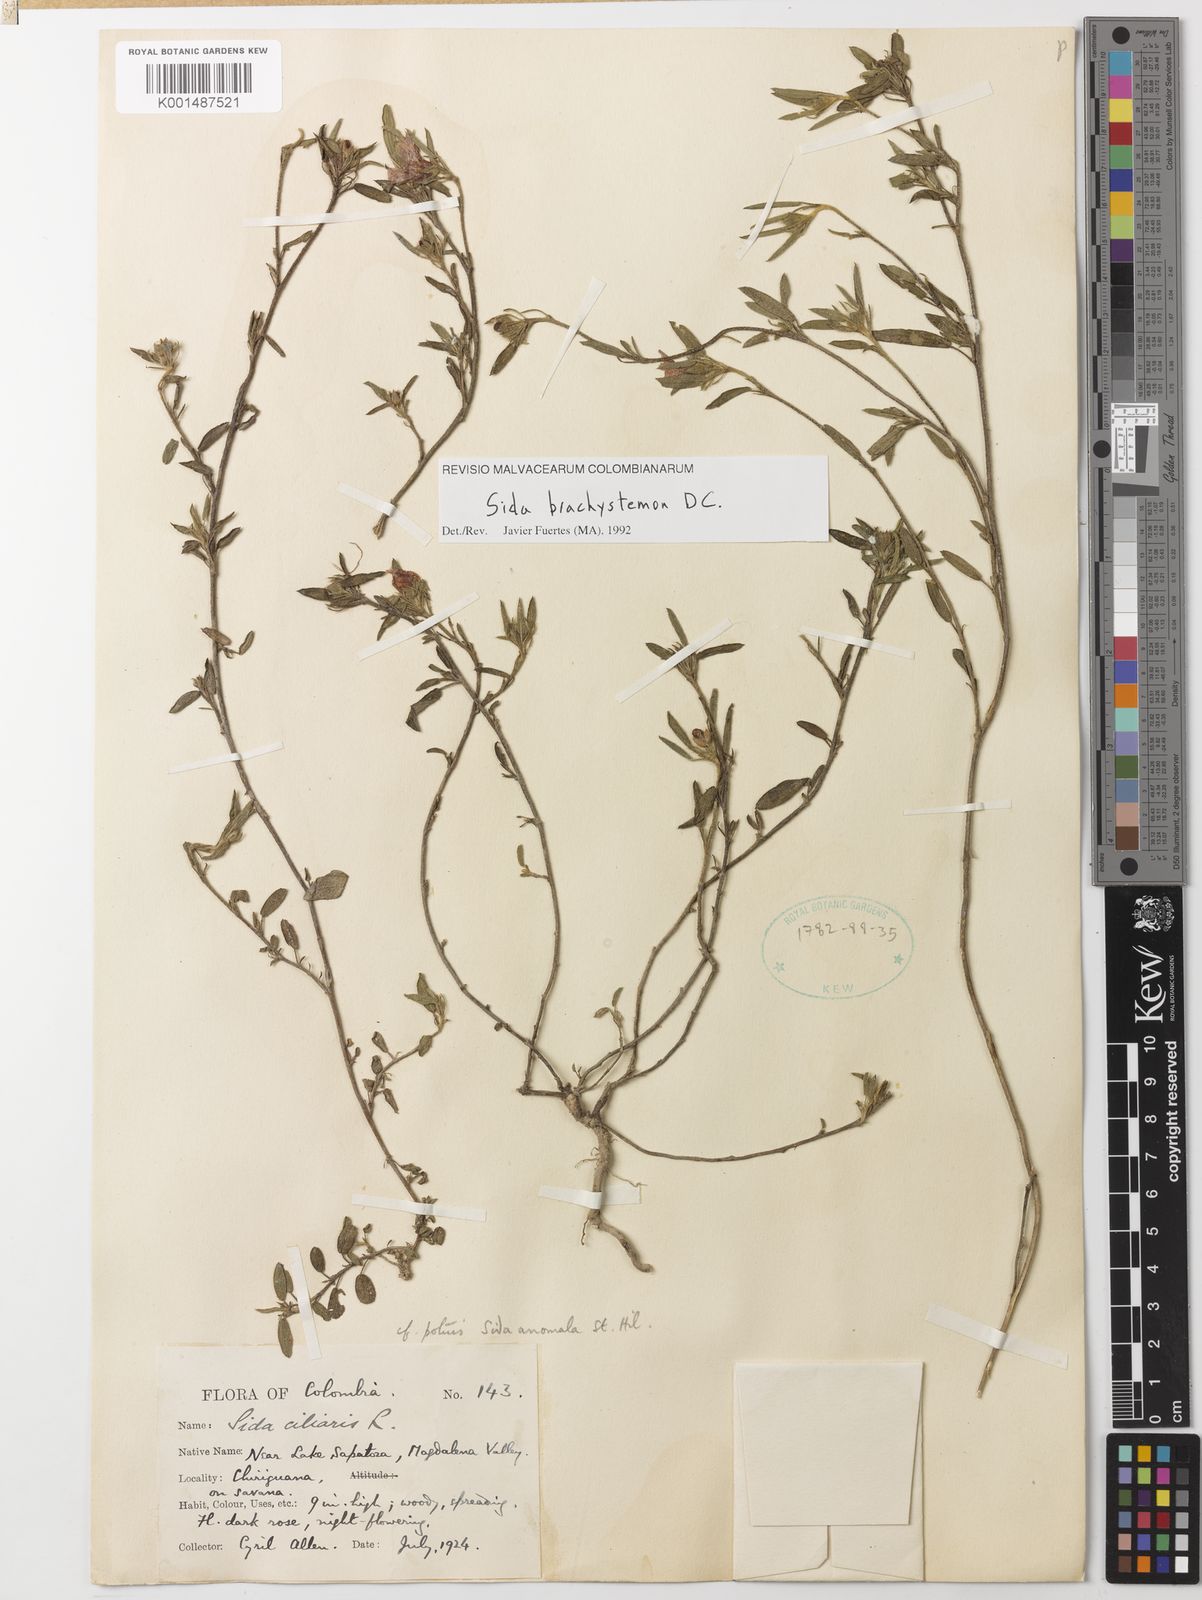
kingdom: Plantae
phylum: Tracheophyta
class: Magnoliopsida
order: Malvales
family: Malvaceae
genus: Sida
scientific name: Sida brachystemon
